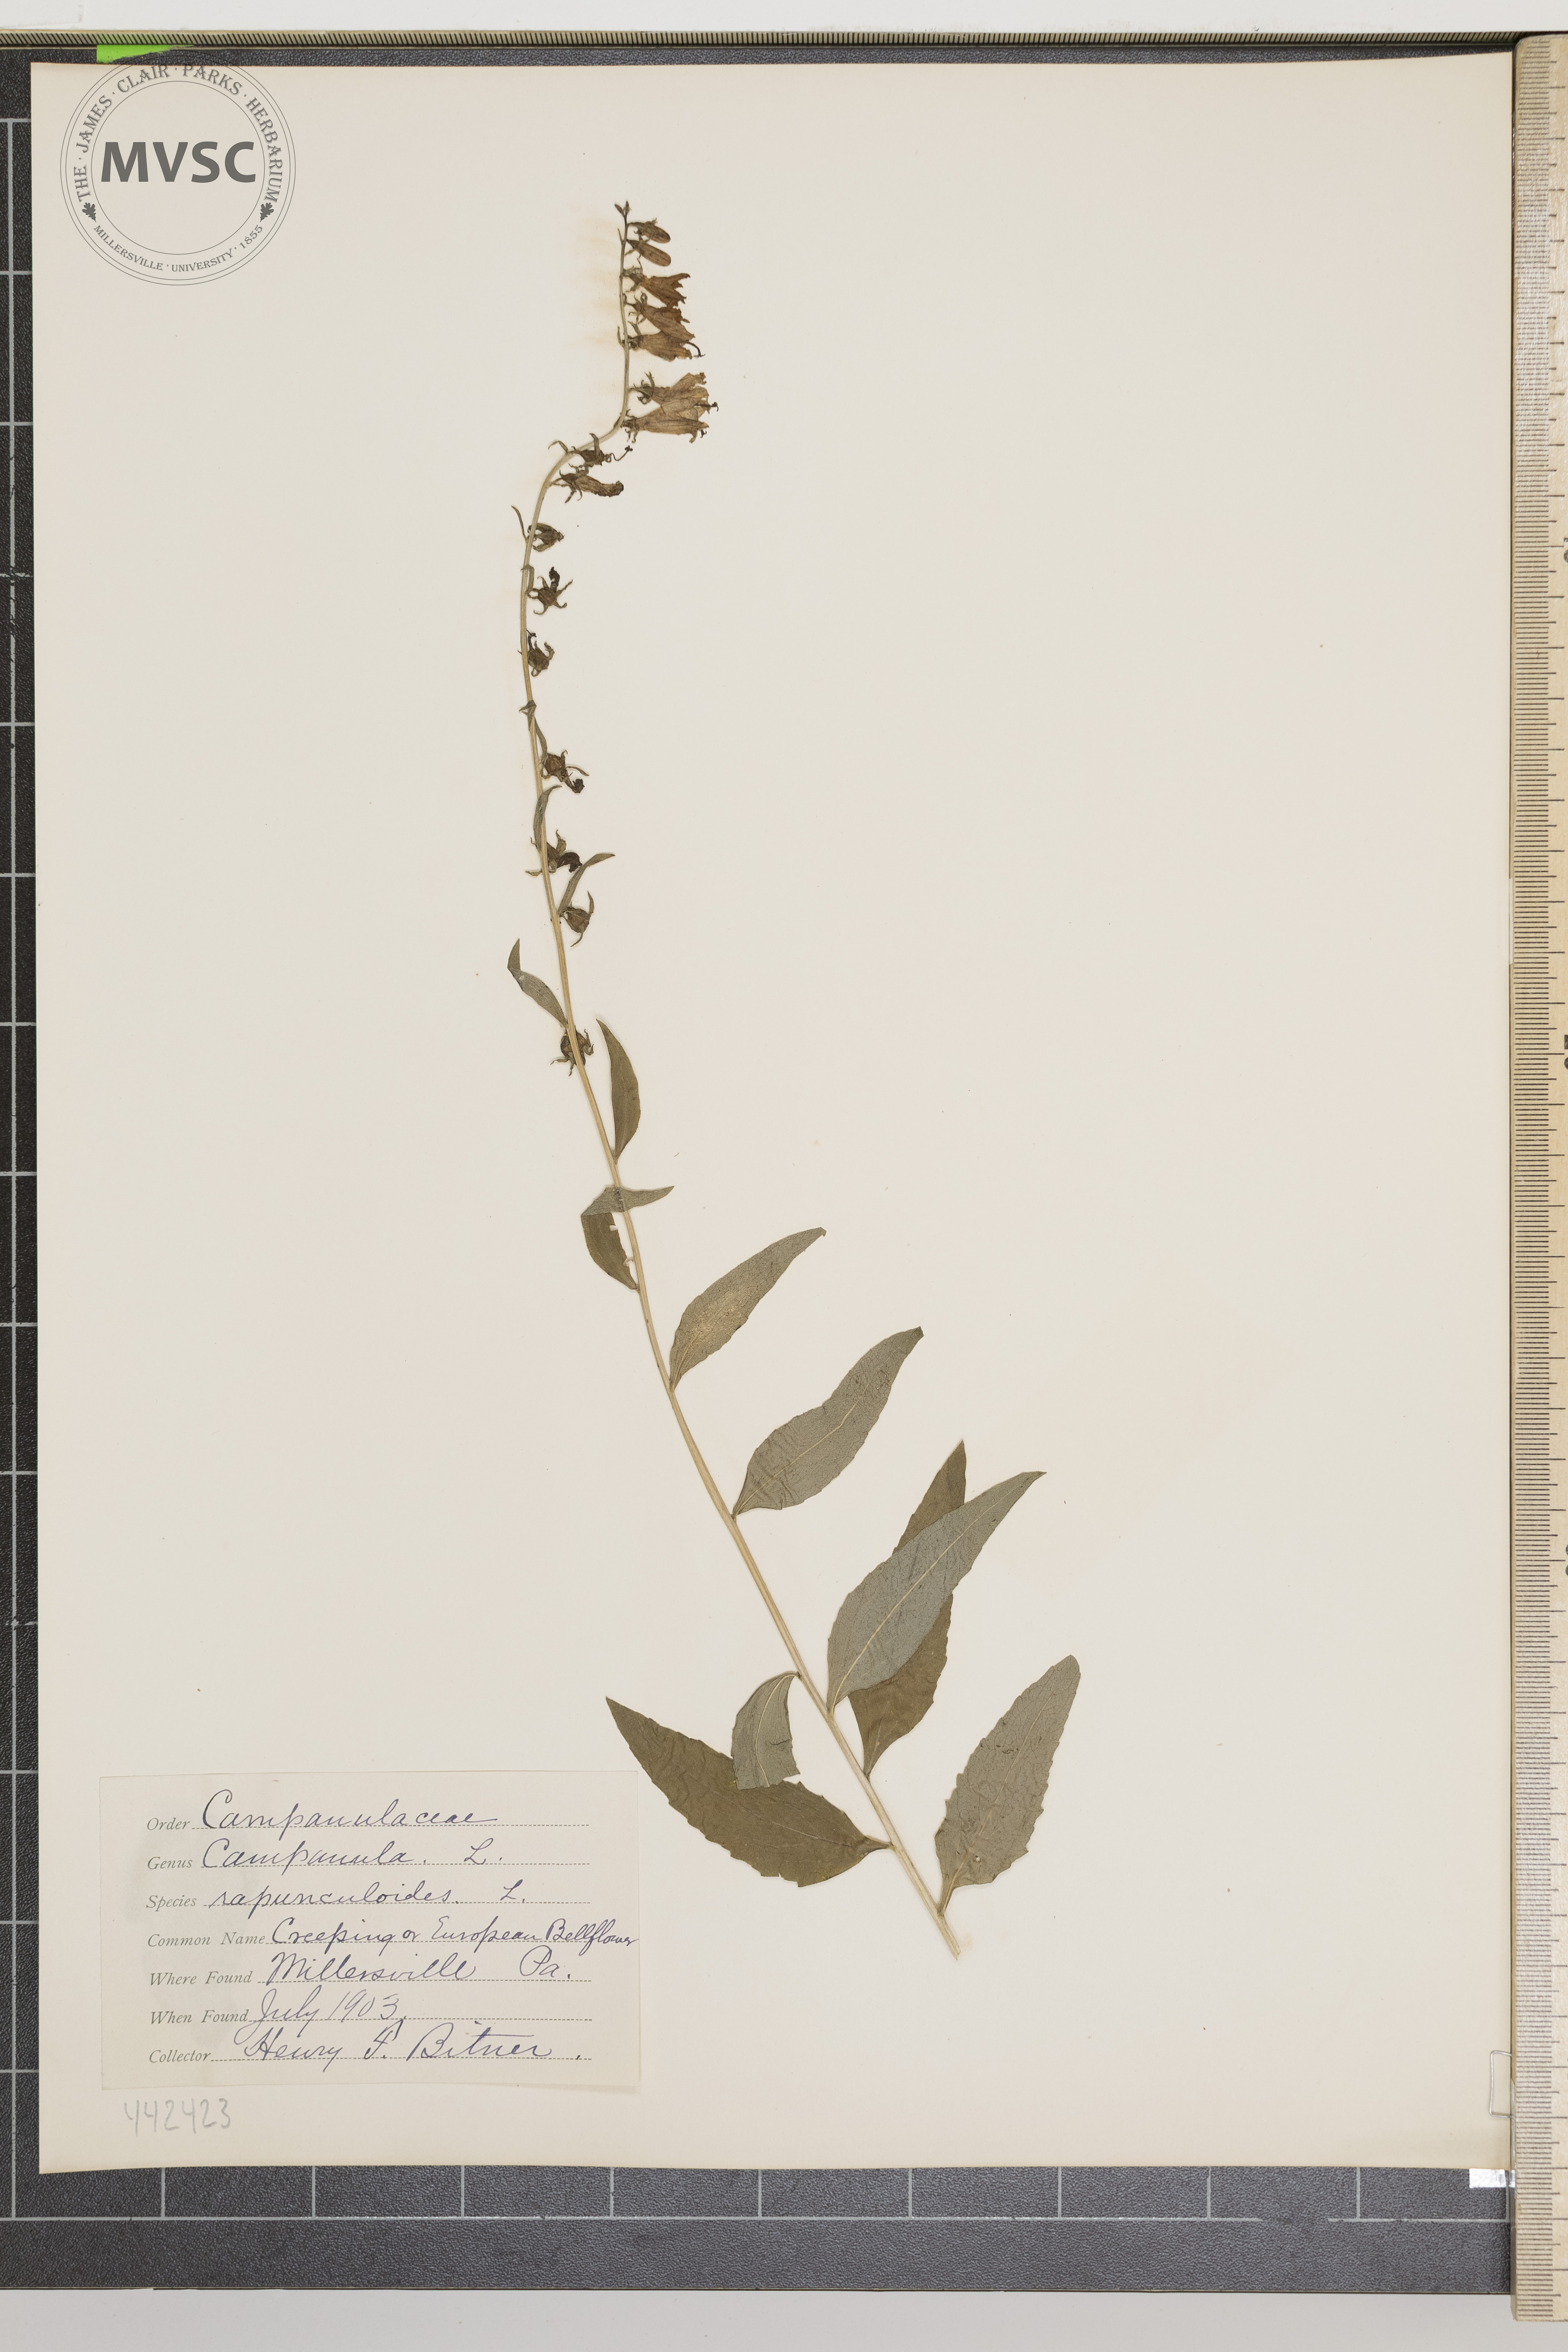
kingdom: Plantae
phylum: Tracheophyta
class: Magnoliopsida
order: Asterales
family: Campanulaceae
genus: Campanula
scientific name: Campanula rapunculoides
